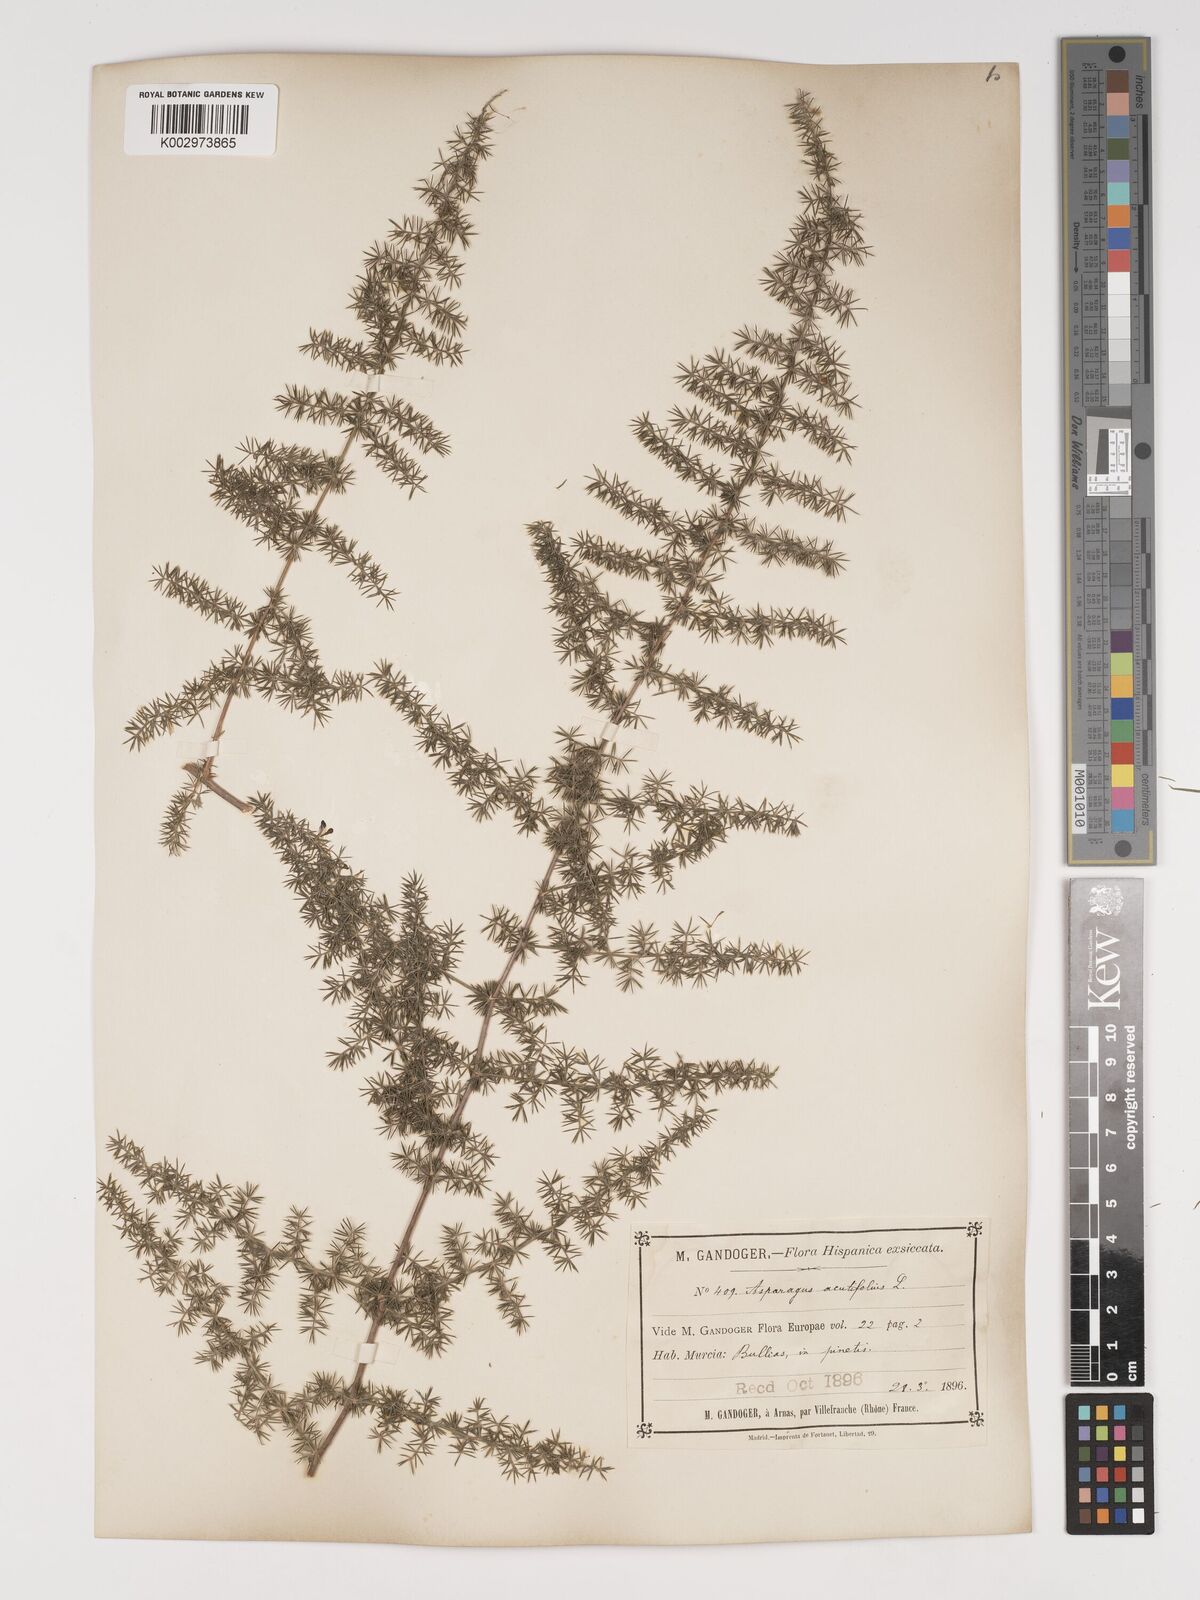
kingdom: Plantae
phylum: Tracheophyta
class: Liliopsida
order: Asparagales
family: Asparagaceae
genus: Asparagus
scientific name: Asparagus acutifolius
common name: Wild asparagus
